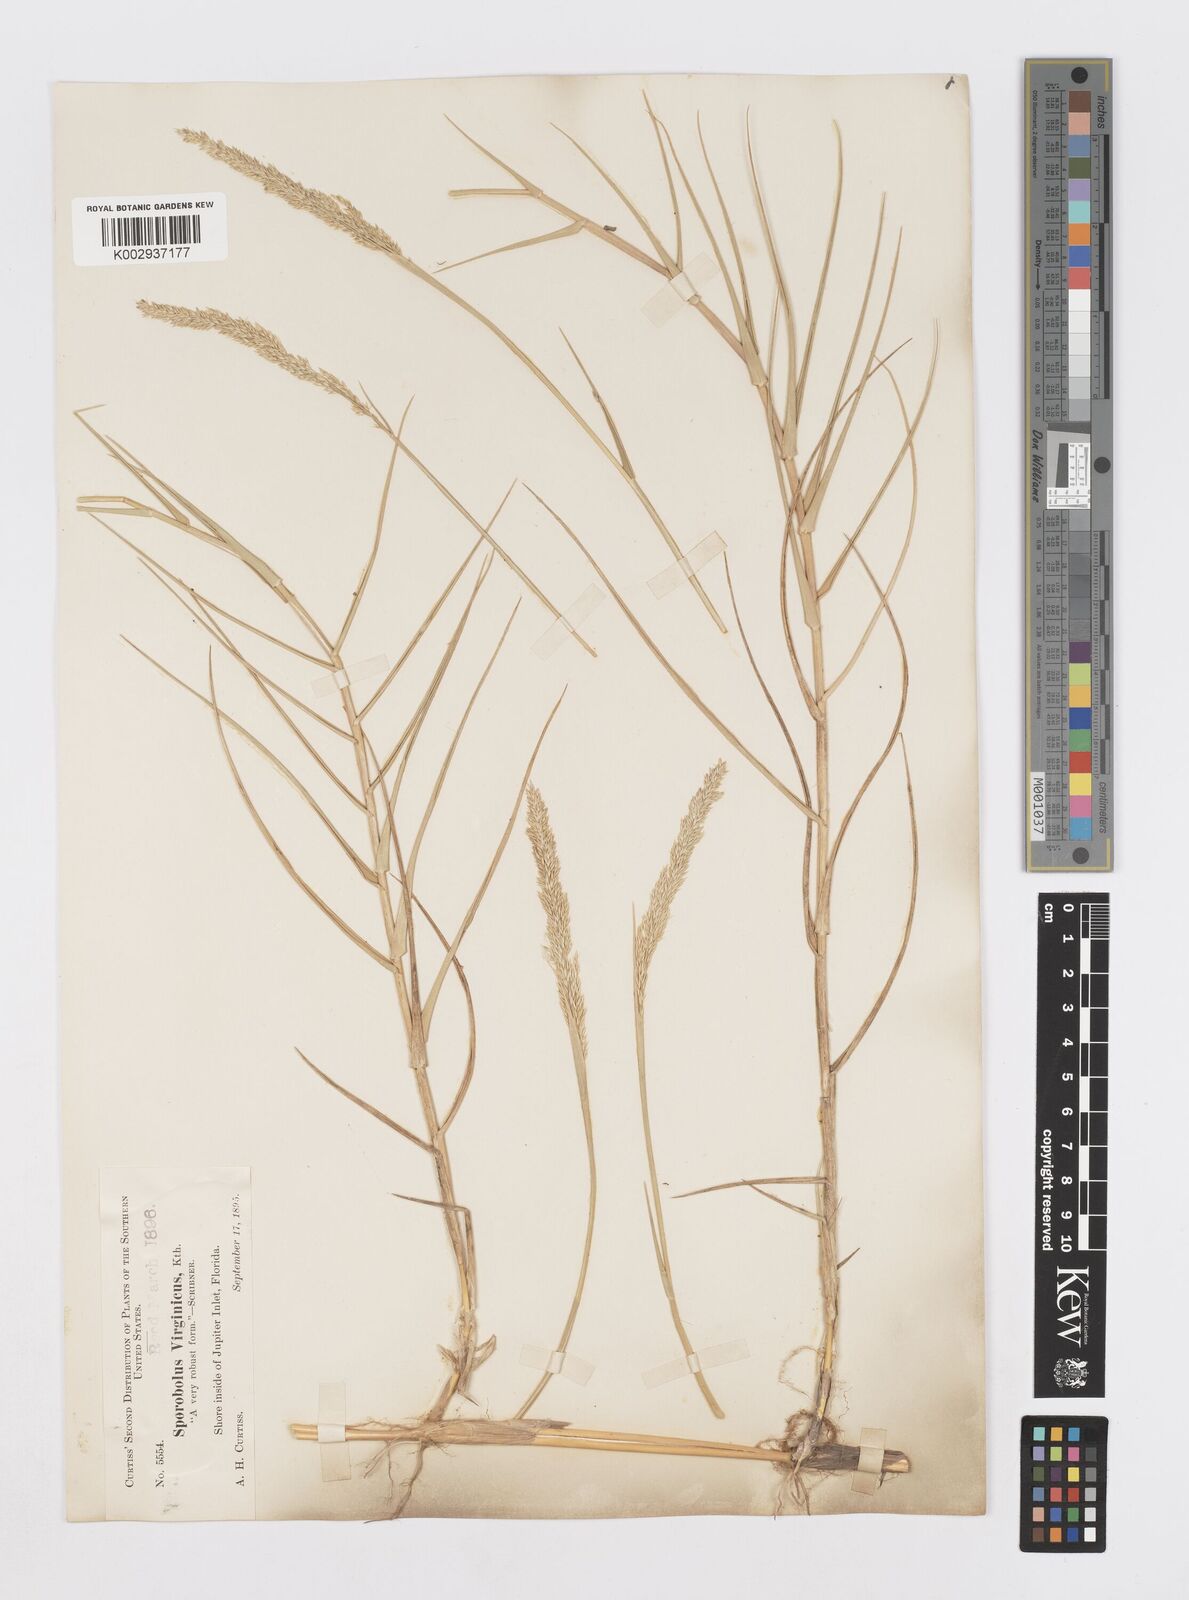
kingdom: Plantae
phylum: Tracheophyta
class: Liliopsida
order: Poales
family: Poaceae
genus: Sporobolus
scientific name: Sporobolus virginicus
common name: Beach dropseed
